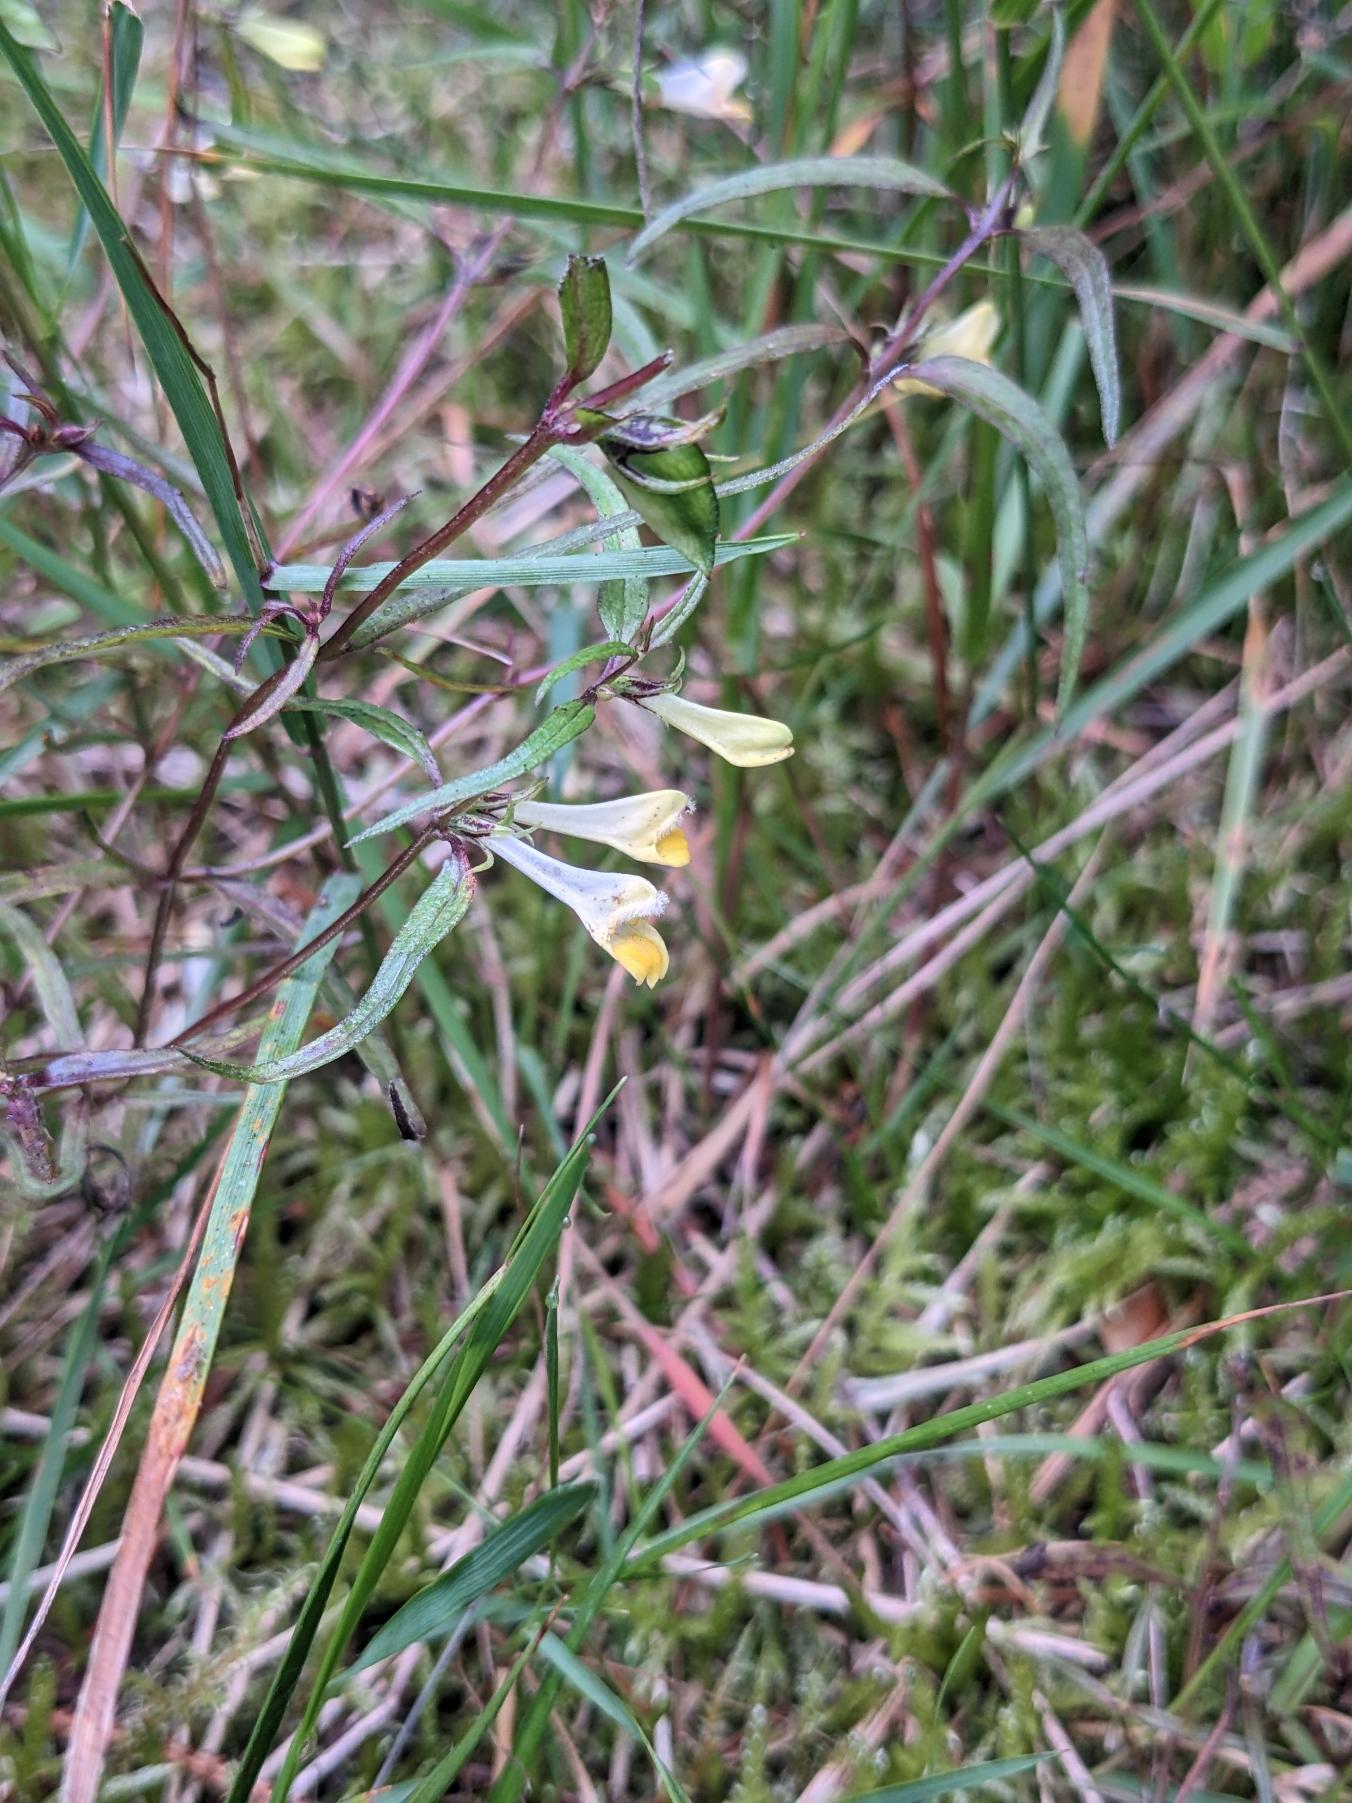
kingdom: Plantae
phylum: Tracheophyta
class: Magnoliopsida
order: Lamiales
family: Orobanchaceae
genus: Melampyrum
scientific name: Melampyrum pratense
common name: Almindelig kohvede
